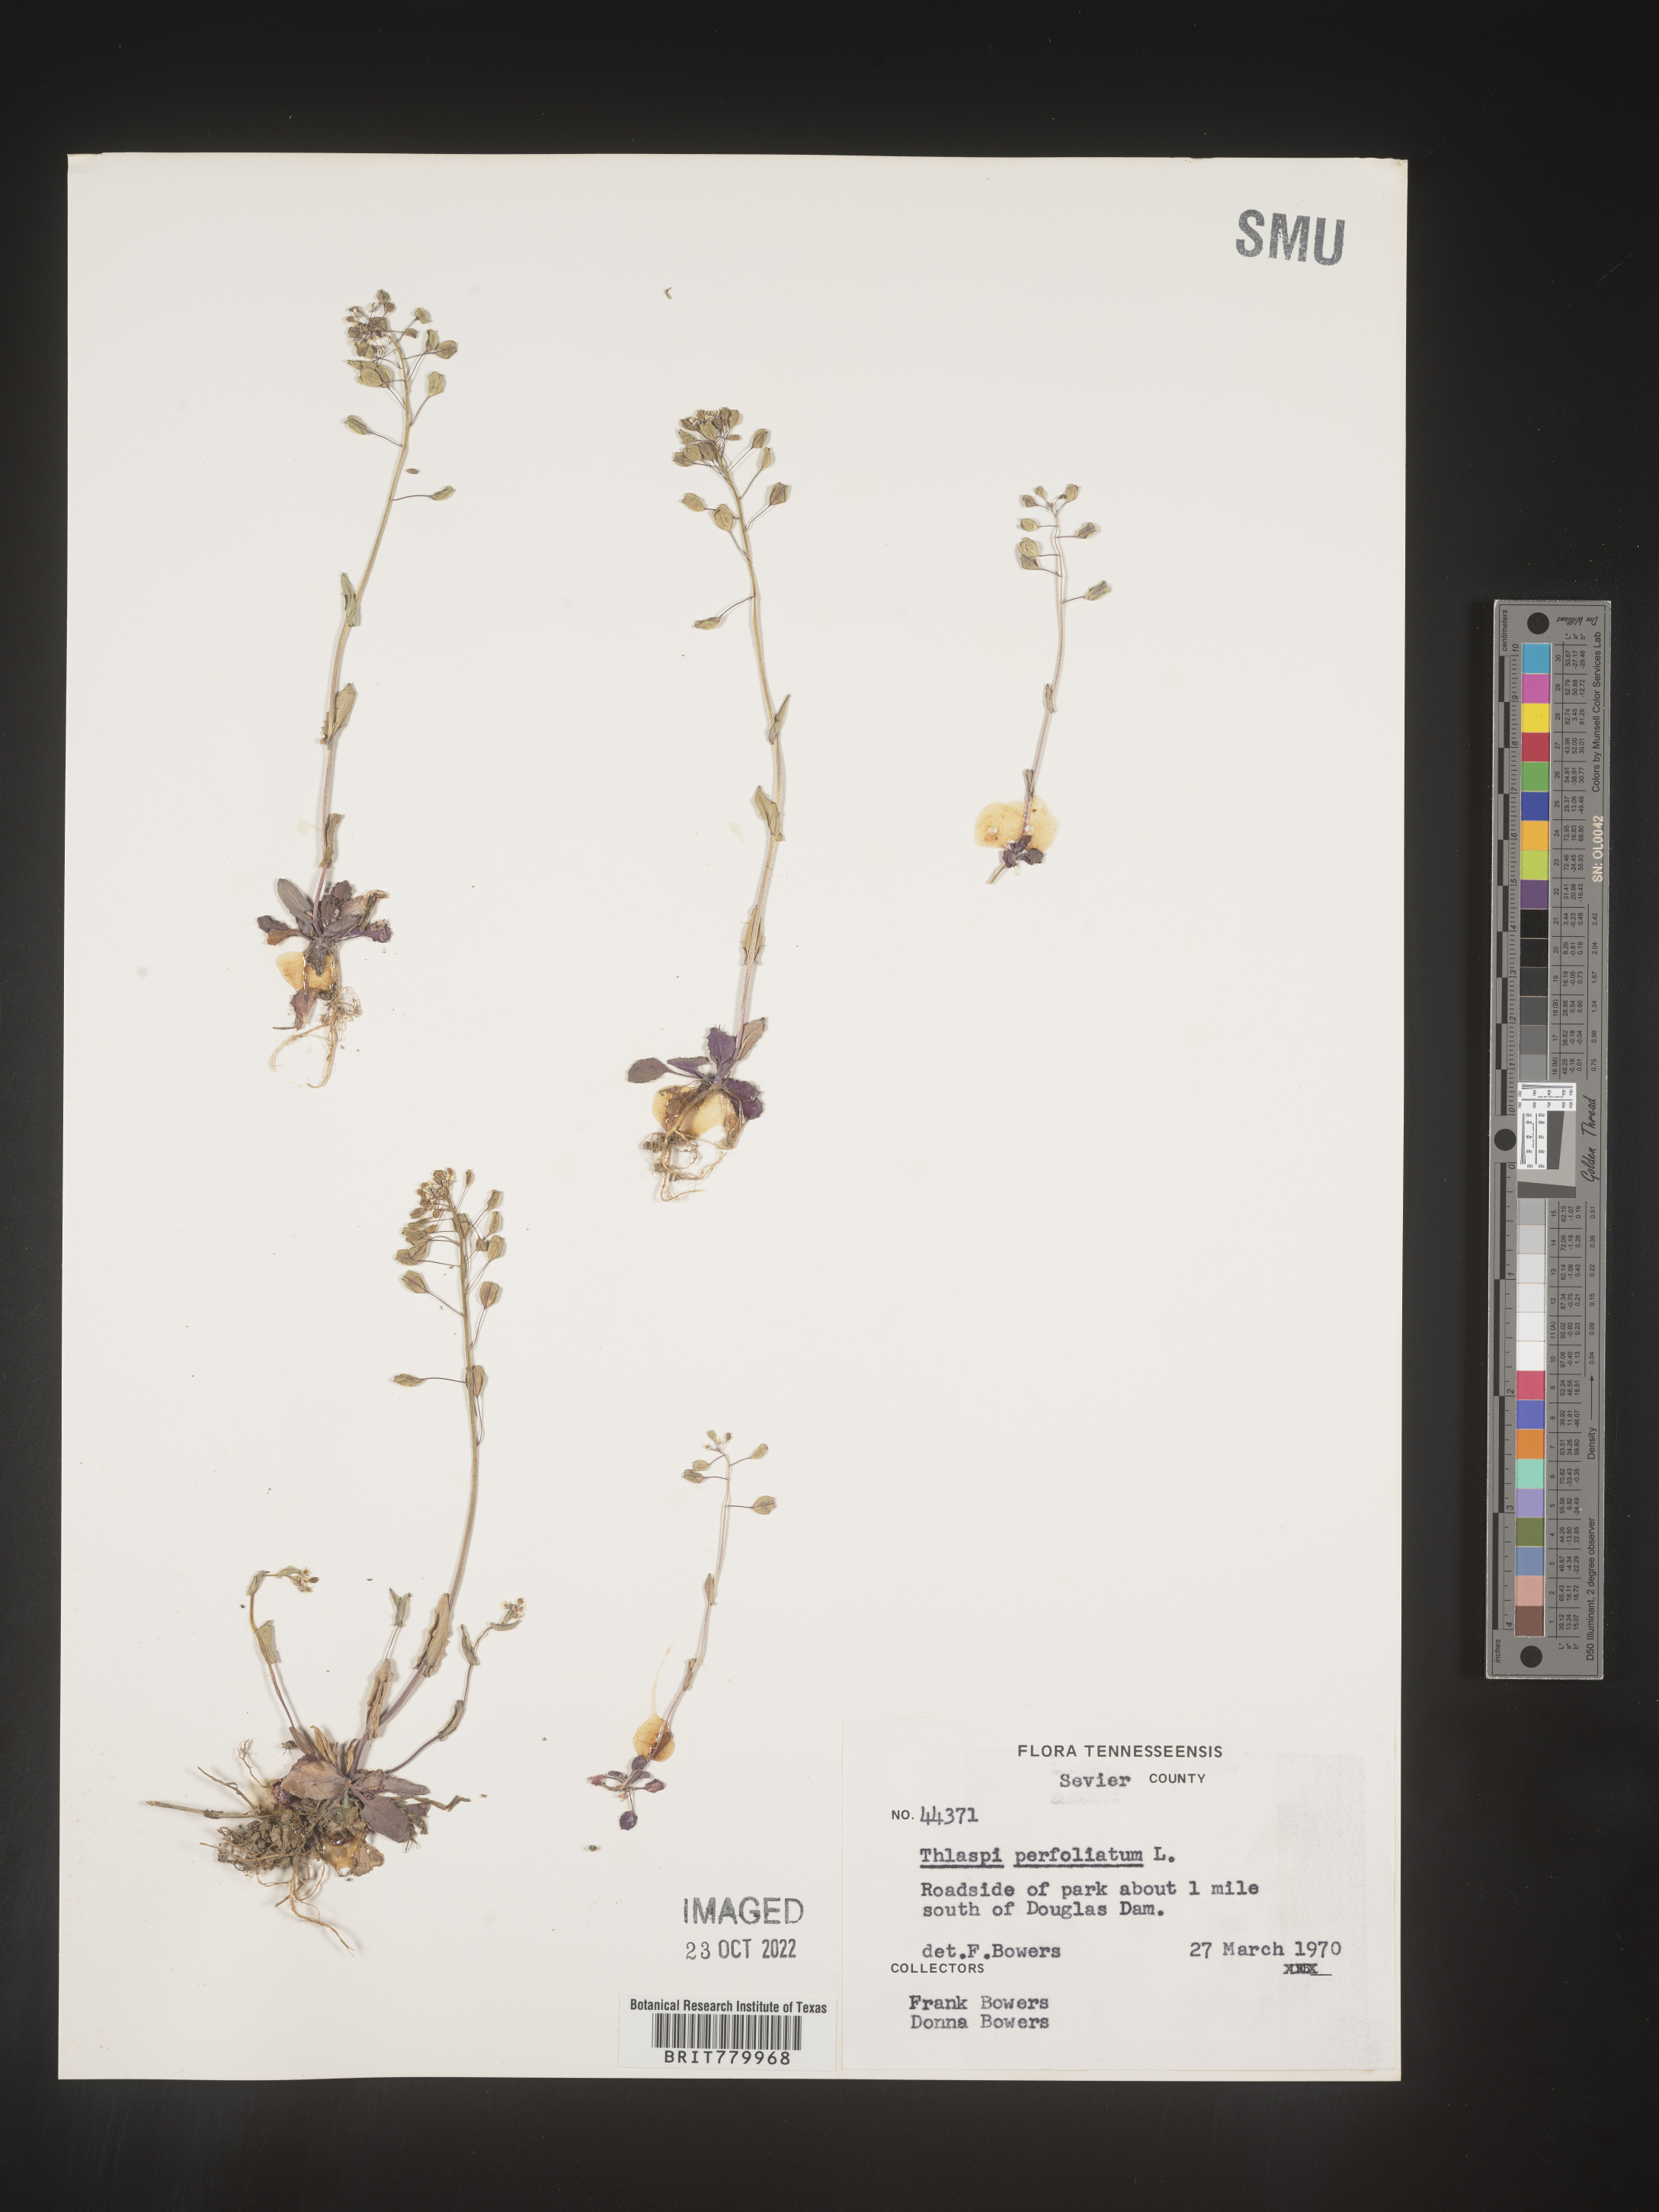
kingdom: Plantae
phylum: Tracheophyta
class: Magnoliopsida
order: Brassicales
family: Brassicaceae
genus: Thlaspi
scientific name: Thlaspi
